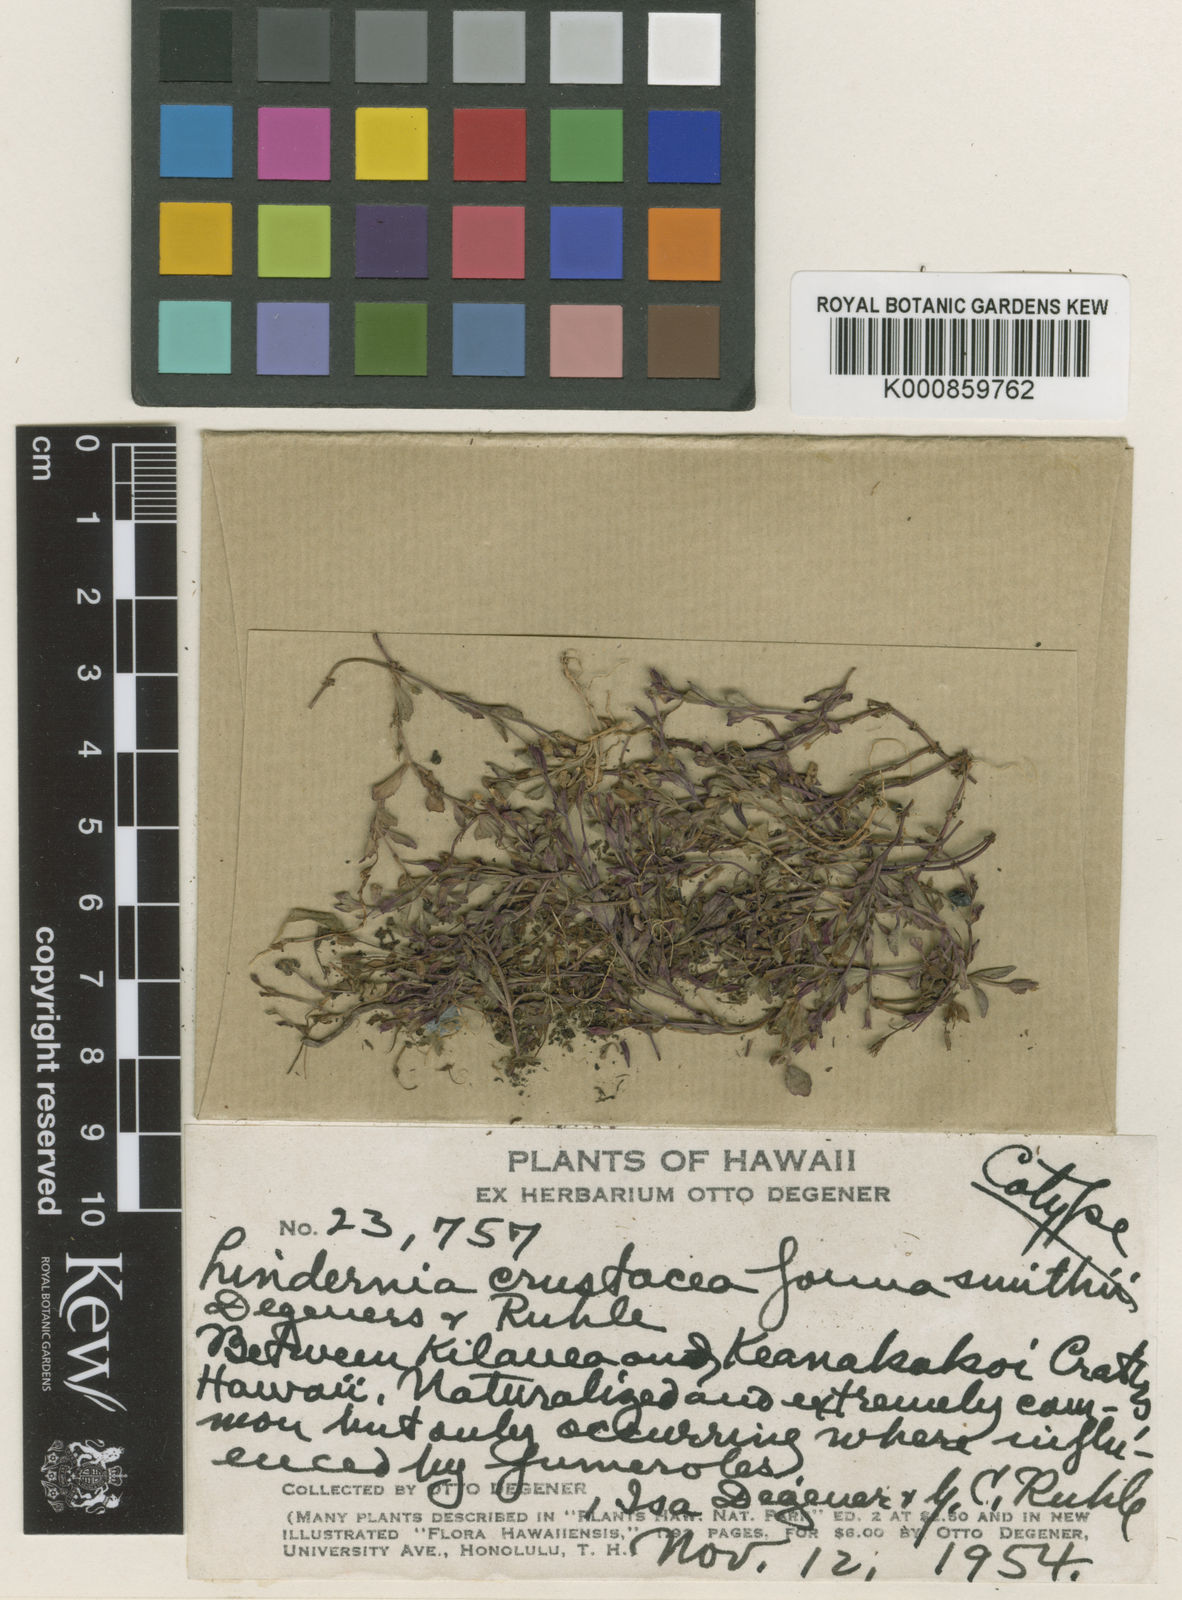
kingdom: Plantae
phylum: Tracheophyta
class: Magnoliopsida
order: Lamiales
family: Linderniaceae
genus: Torenia
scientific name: Torenia crustacea
